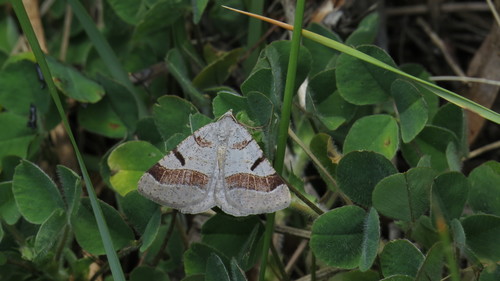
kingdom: Animalia
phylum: Arthropoda
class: Insecta
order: Lepidoptera
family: Geometridae
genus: Itame
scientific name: Itame vincularia
